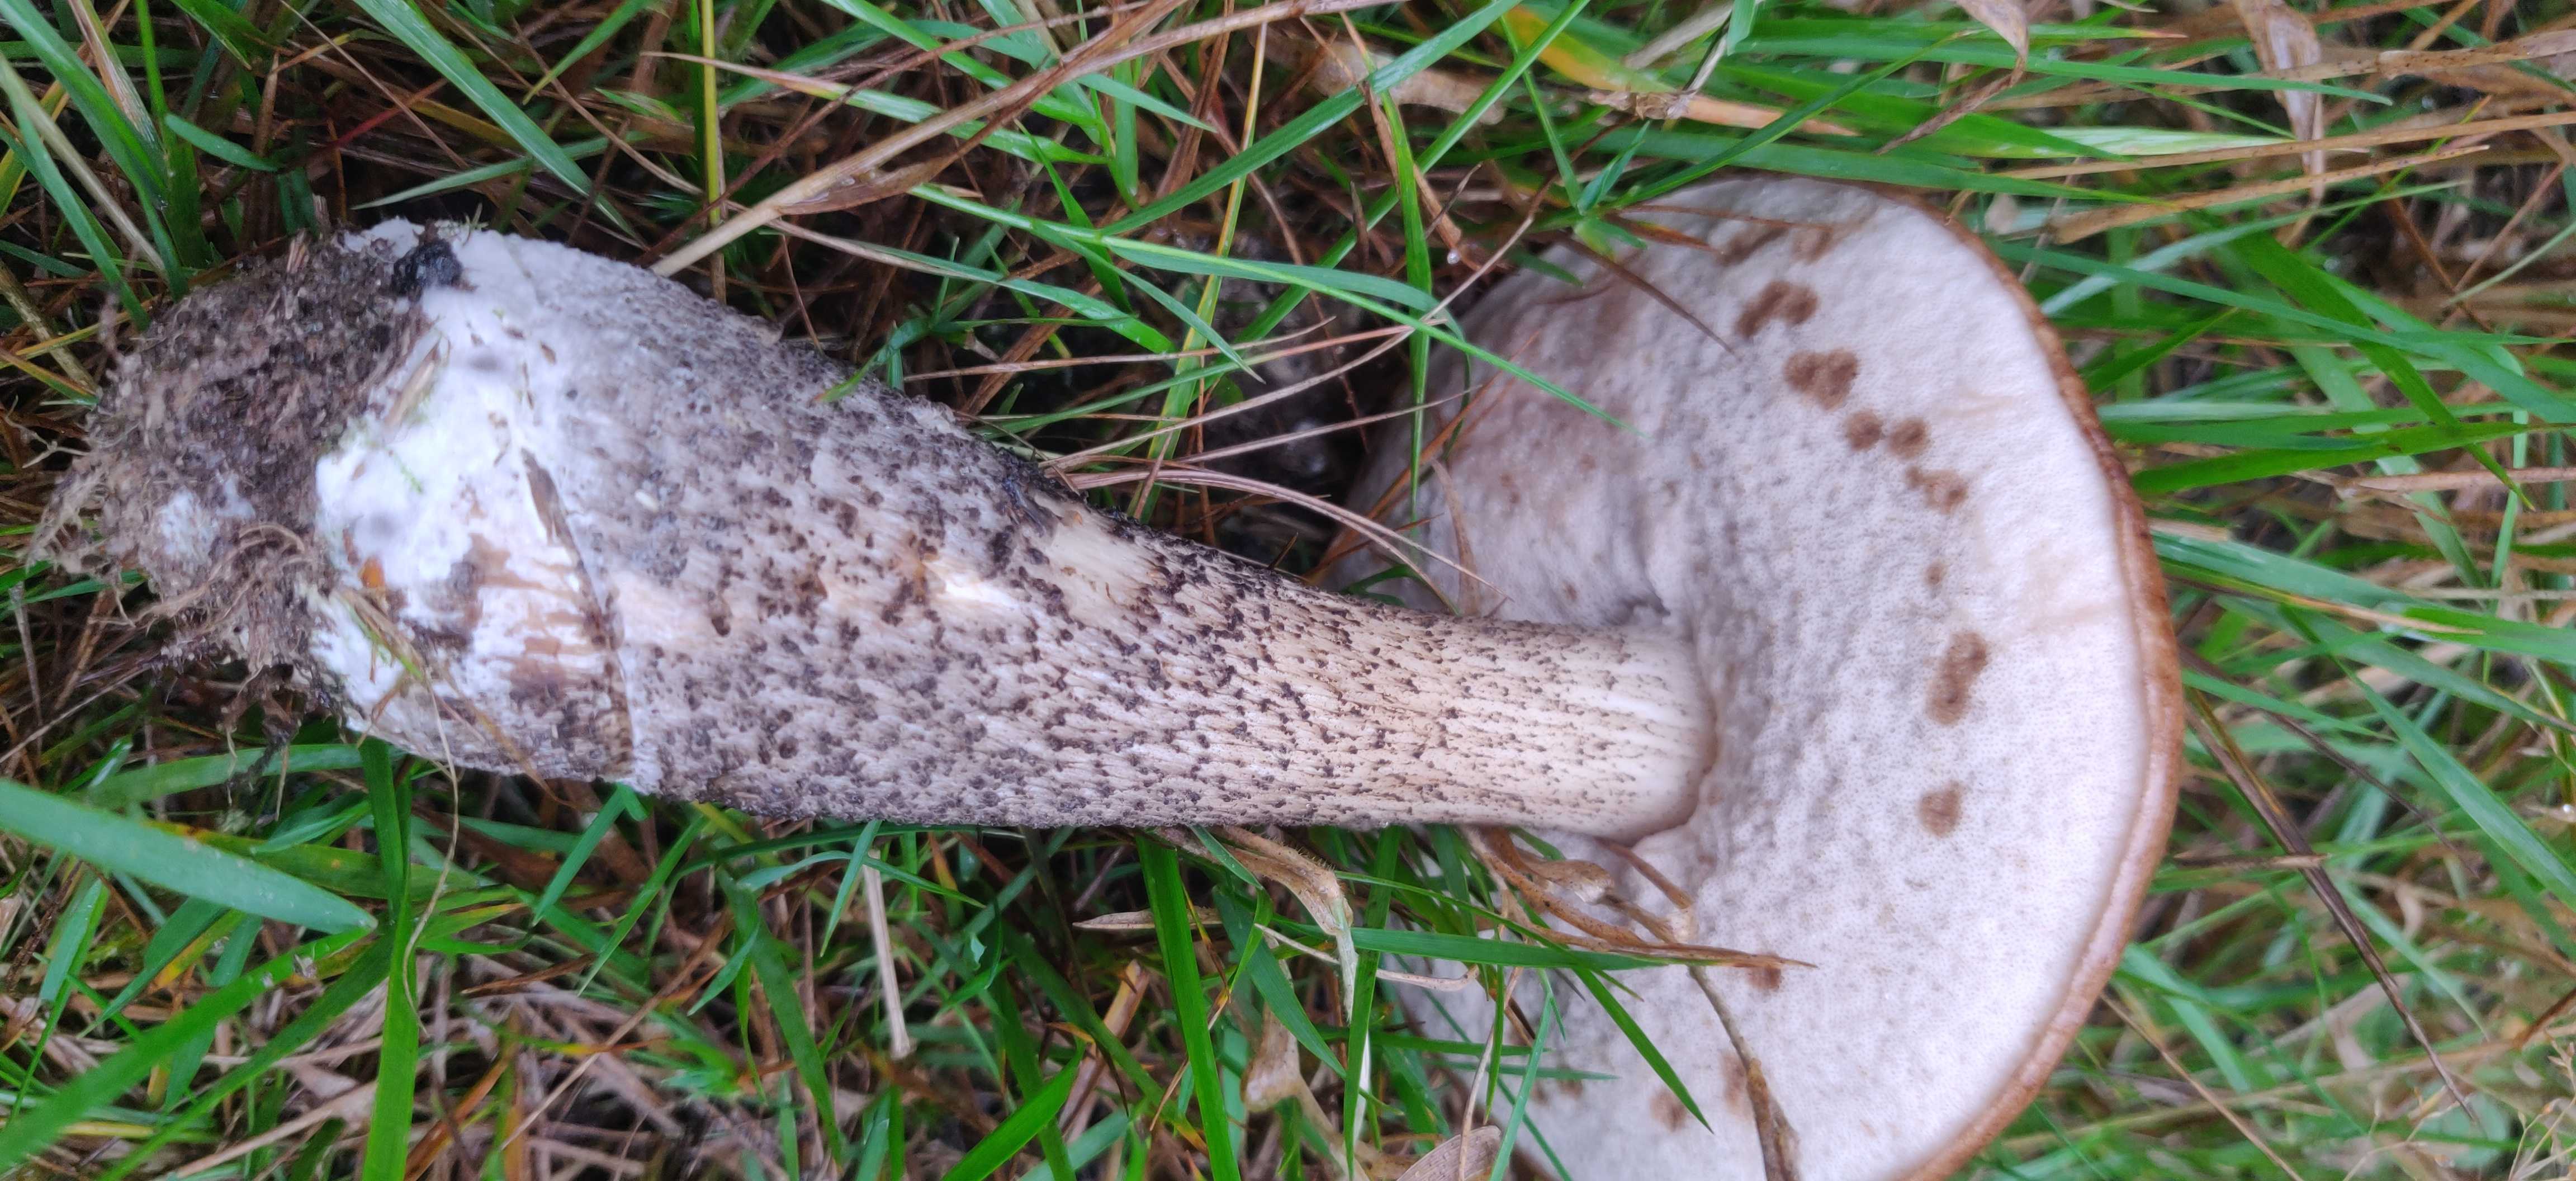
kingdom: Fungi
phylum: Basidiomycota
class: Agaricomycetes
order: Boletales
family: Boletaceae
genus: Leccinum
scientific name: Leccinum scabrum
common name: brun skælrørhat
